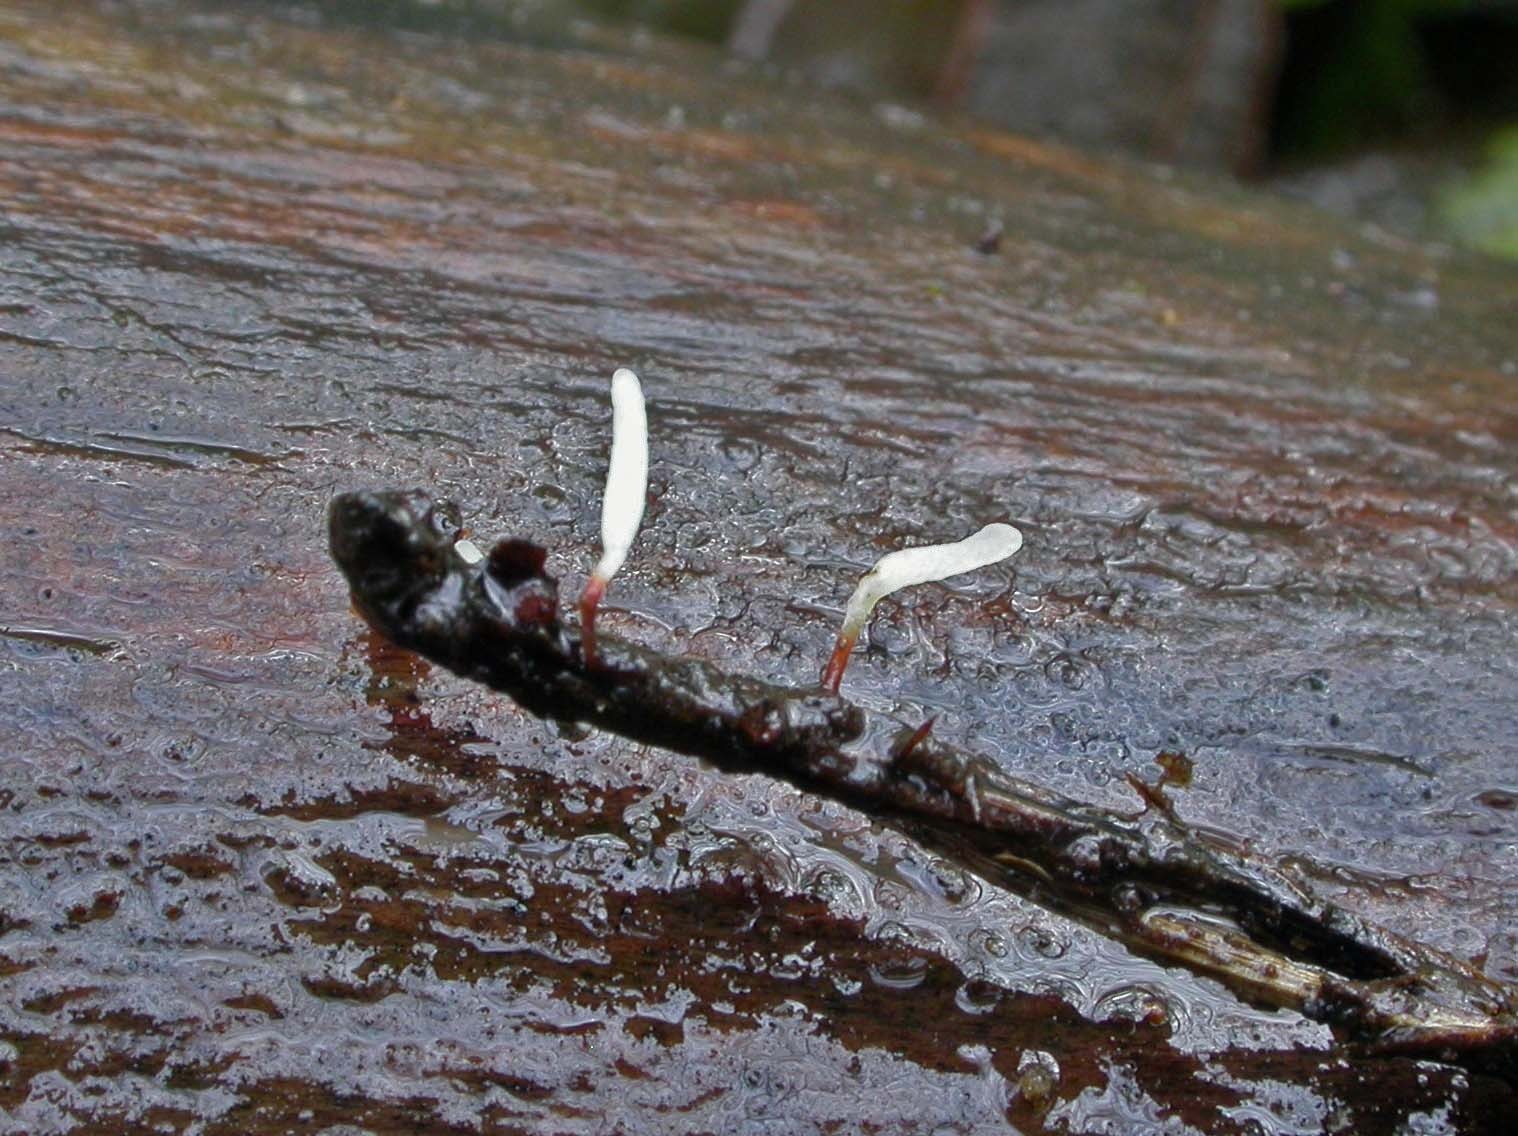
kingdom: Fungi
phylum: Basidiomycota
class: Agaricomycetes
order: Agaricales
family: Typhulaceae
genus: Typhula
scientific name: Typhula erythropus
